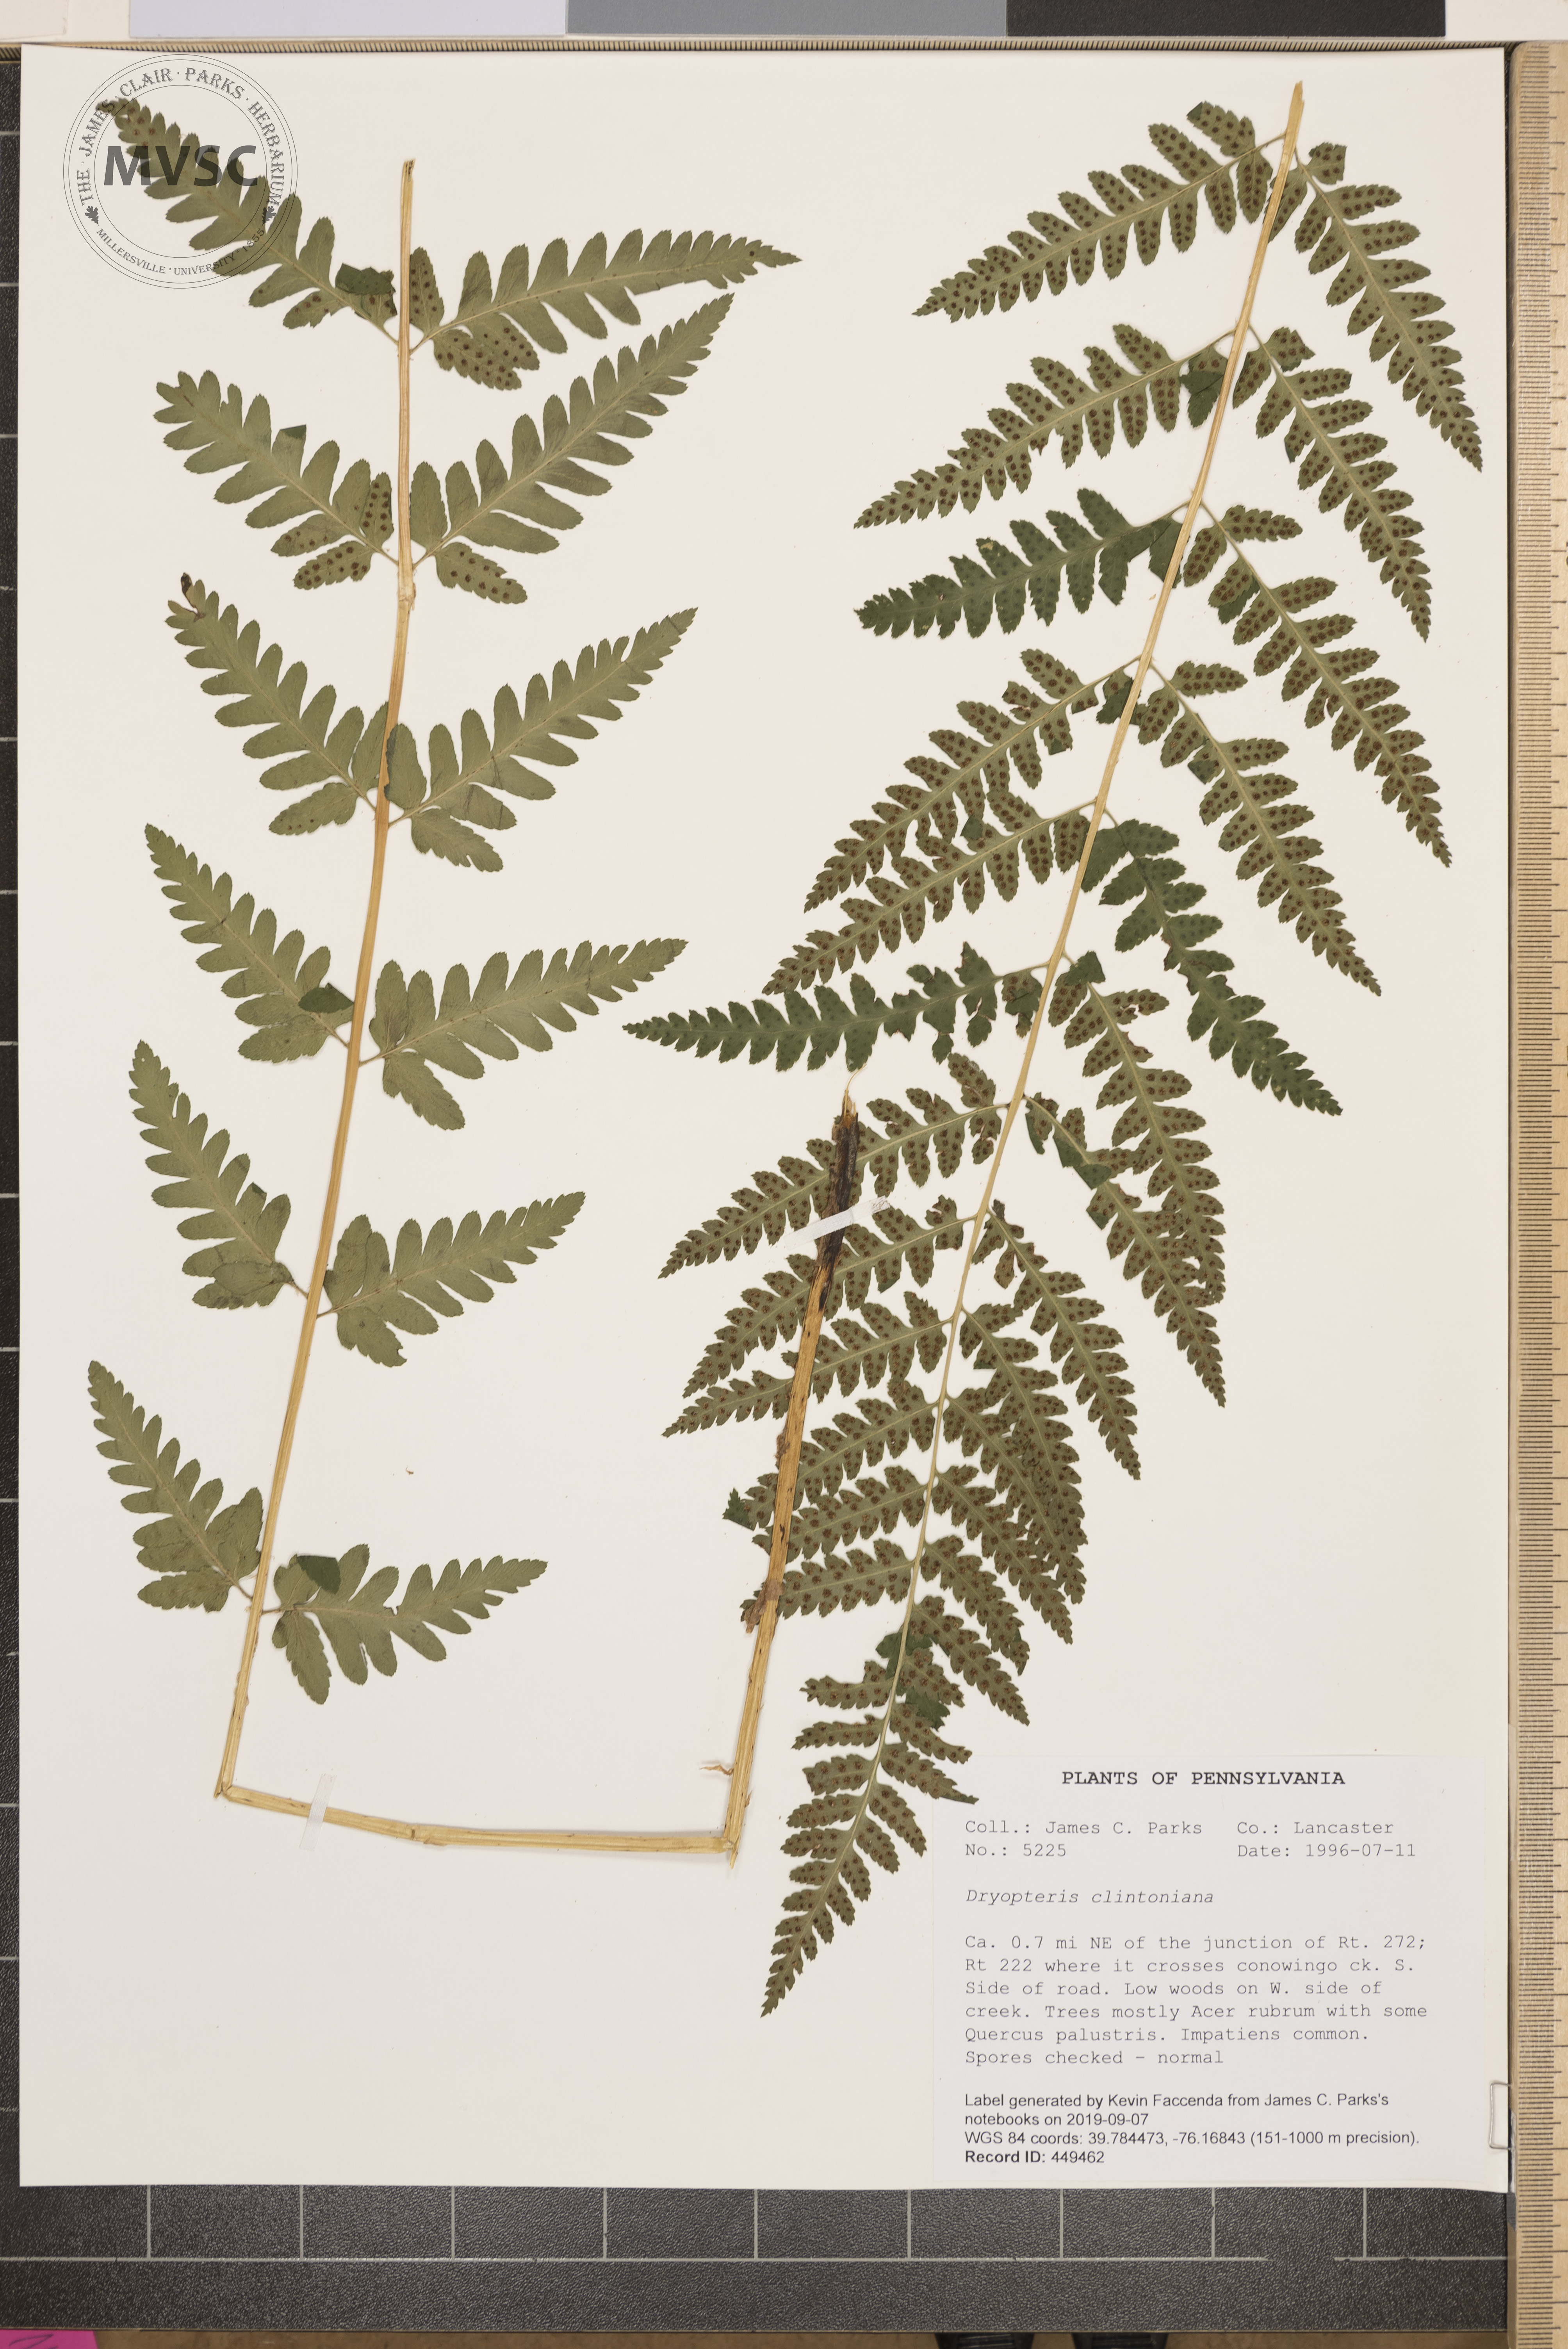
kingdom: Plantae
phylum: Tracheophyta
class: Polypodiopsida
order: Polypodiales
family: Dryopteridaceae
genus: Dryopteris
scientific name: Dryopteris clintoniana
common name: Clinton's wood fern
